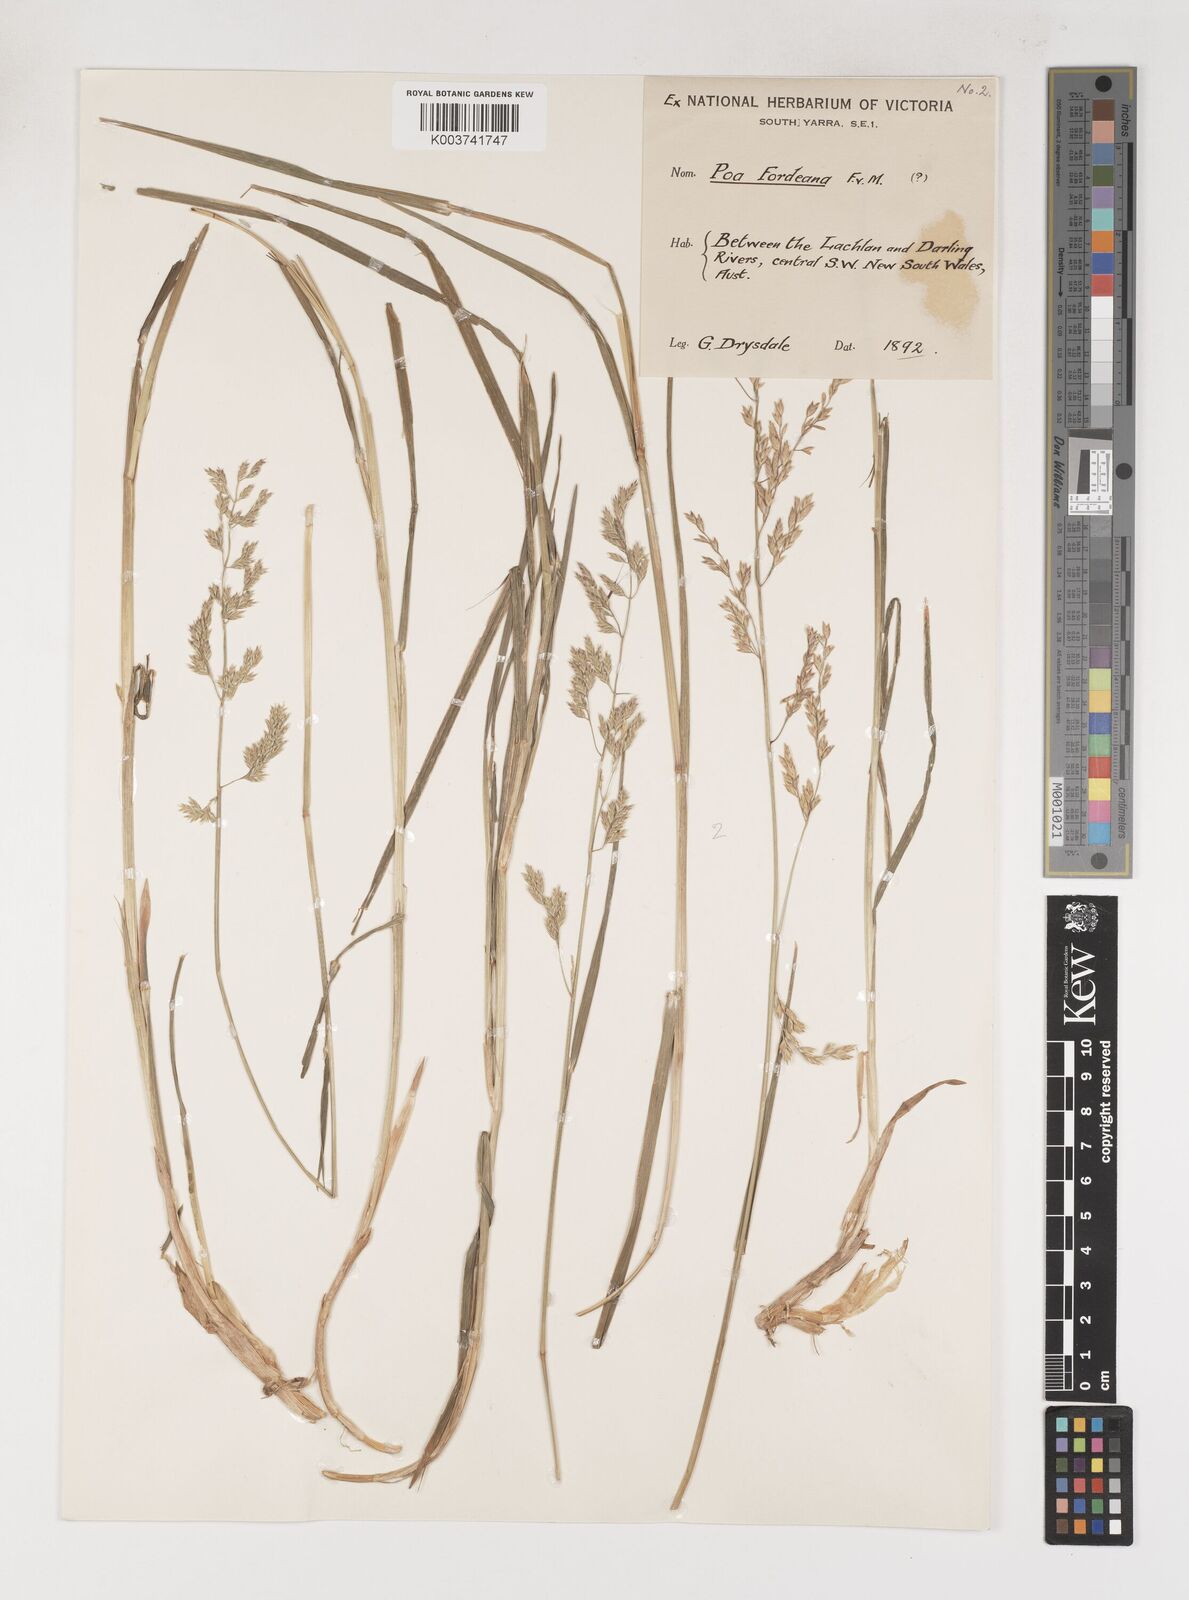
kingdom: Plantae
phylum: Tracheophyta
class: Liliopsida
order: Poales
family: Poaceae
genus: Poa
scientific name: Poa fordeana
